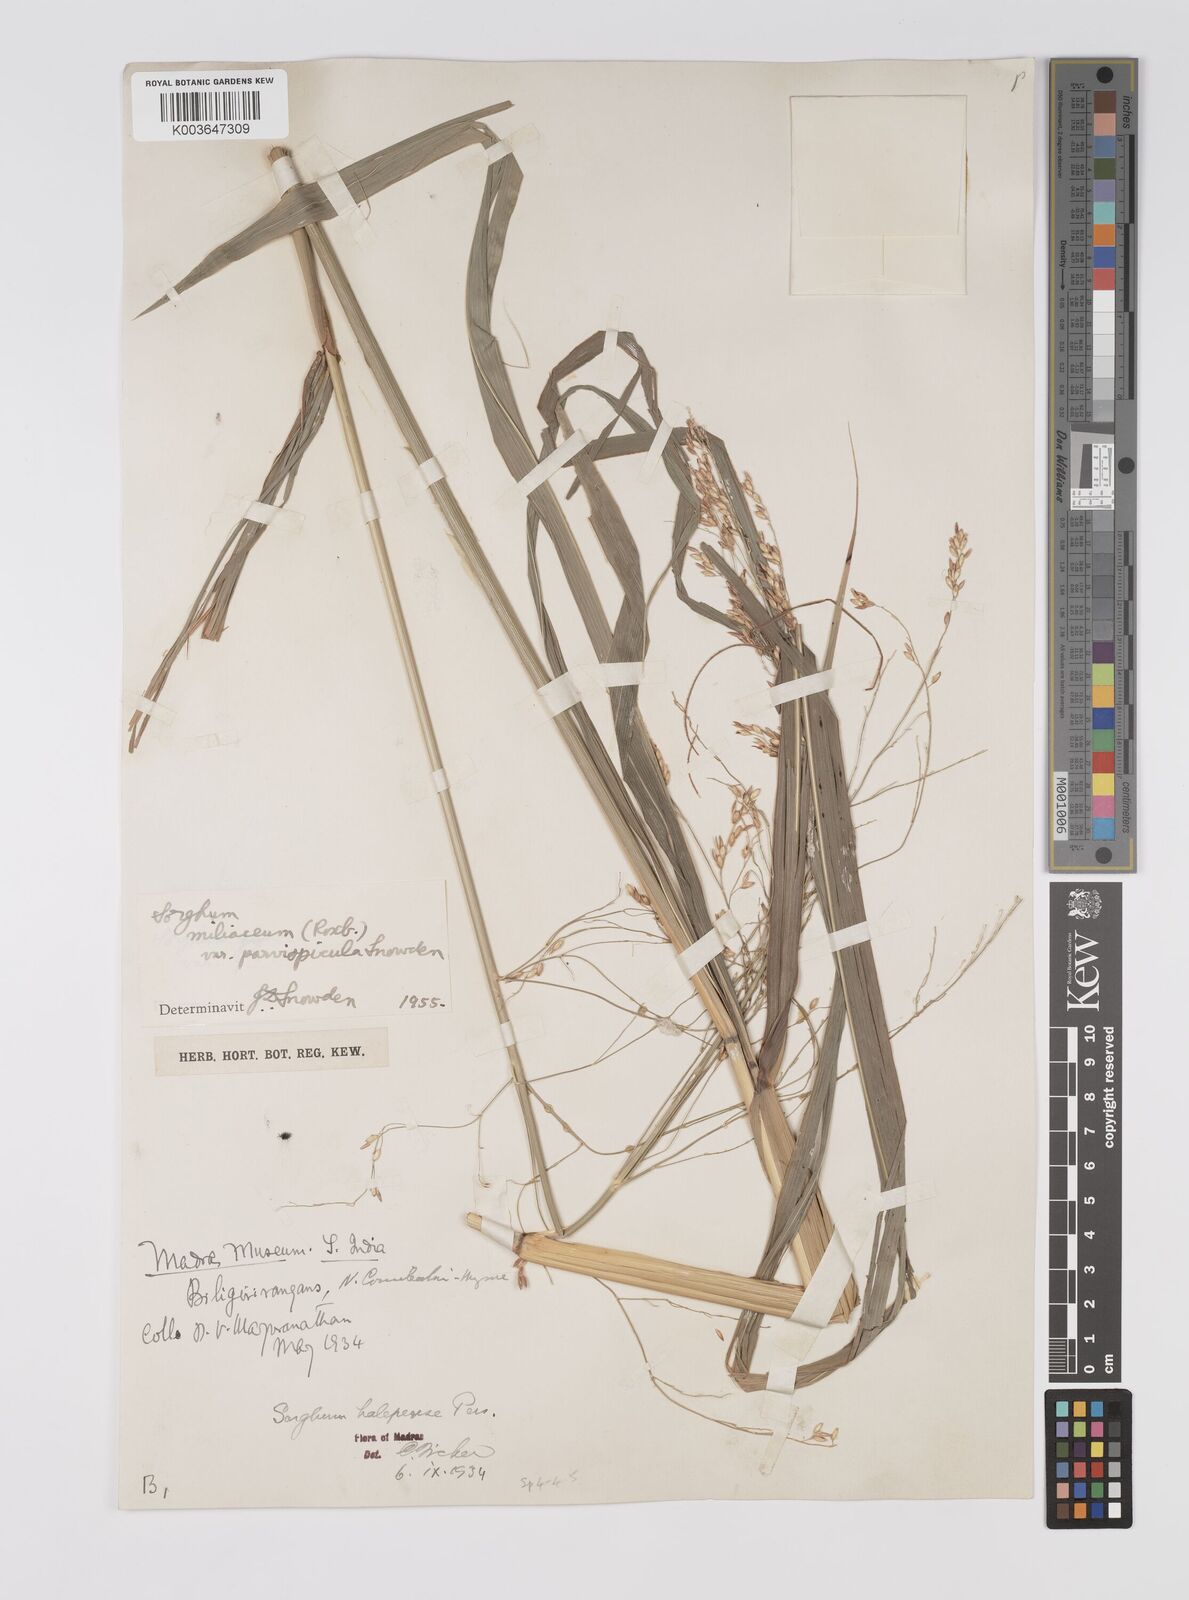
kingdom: Plantae
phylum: Tracheophyta
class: Liliopsida
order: Poales
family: Poaceae
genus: Sorghum
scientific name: Sorghum halepense
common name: Johnson-grass
